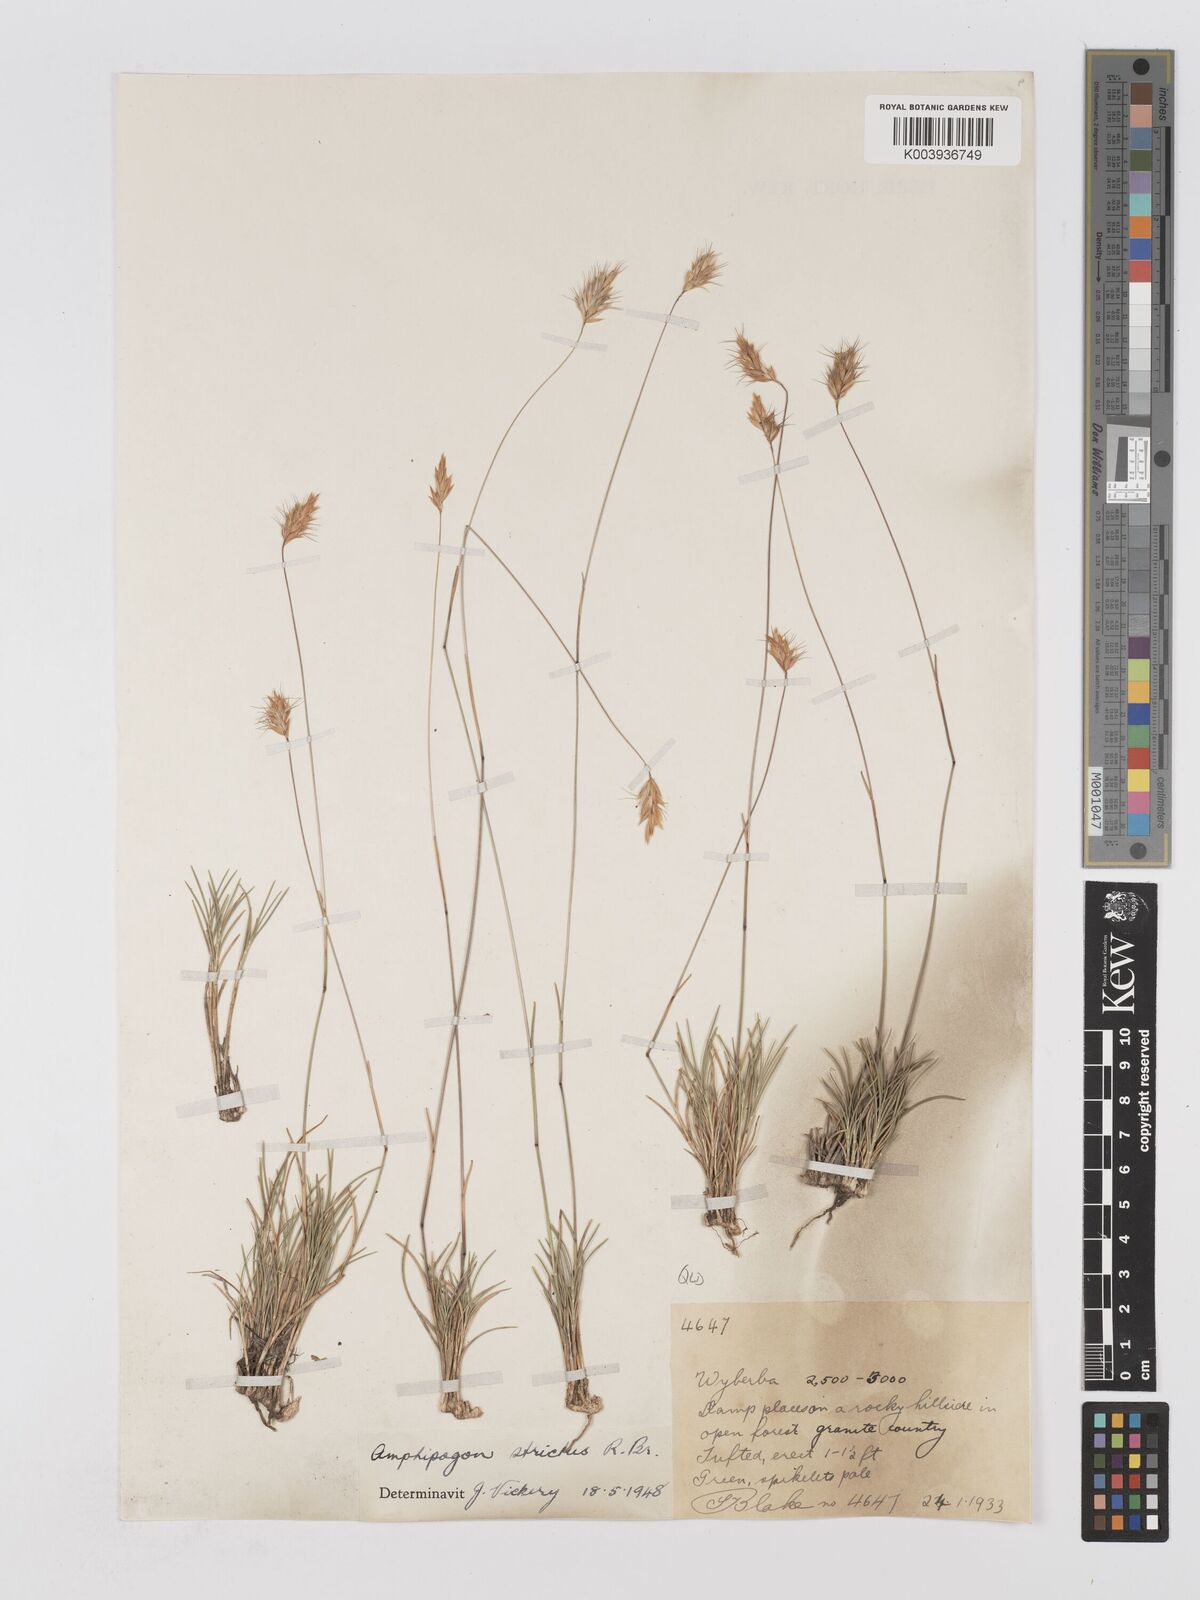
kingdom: Plantae
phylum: Tracheophyta
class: Liliopsida
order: Poales
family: Poaceae
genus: Amphipogon
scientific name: Amphipogon strictus
